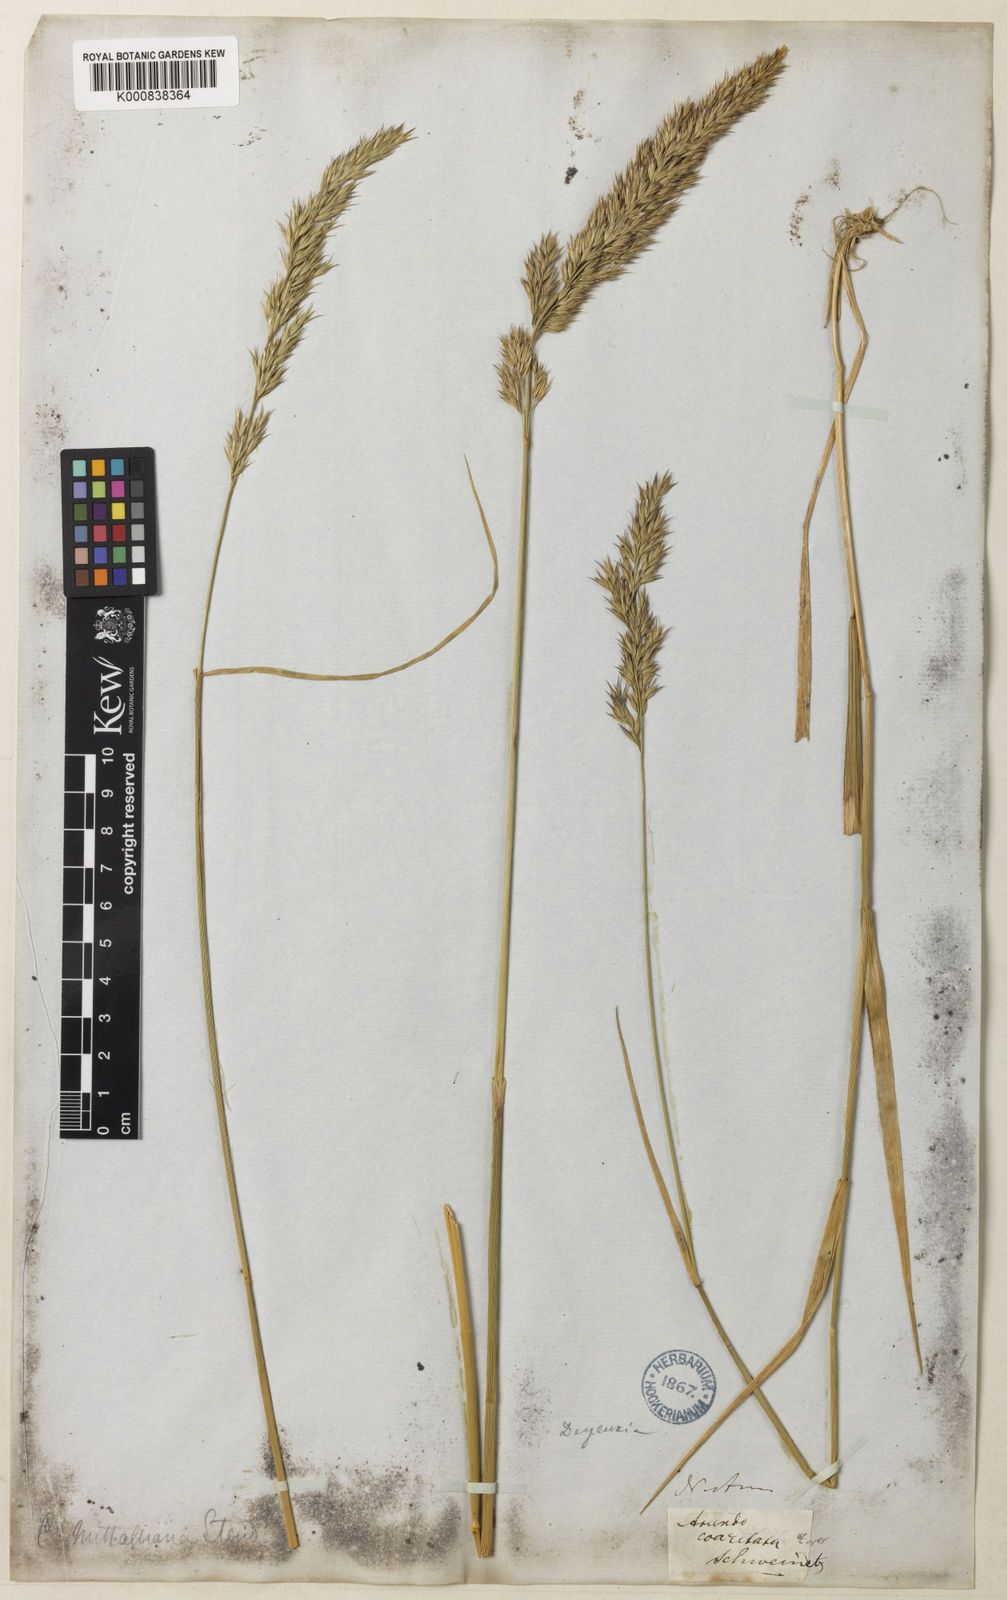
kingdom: Plantae
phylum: Tracheophyta
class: Liliopsida
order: Poales
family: Poaceae
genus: Calamagrostis
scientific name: Calamagrostis canadensis
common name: Canada bluejoint
